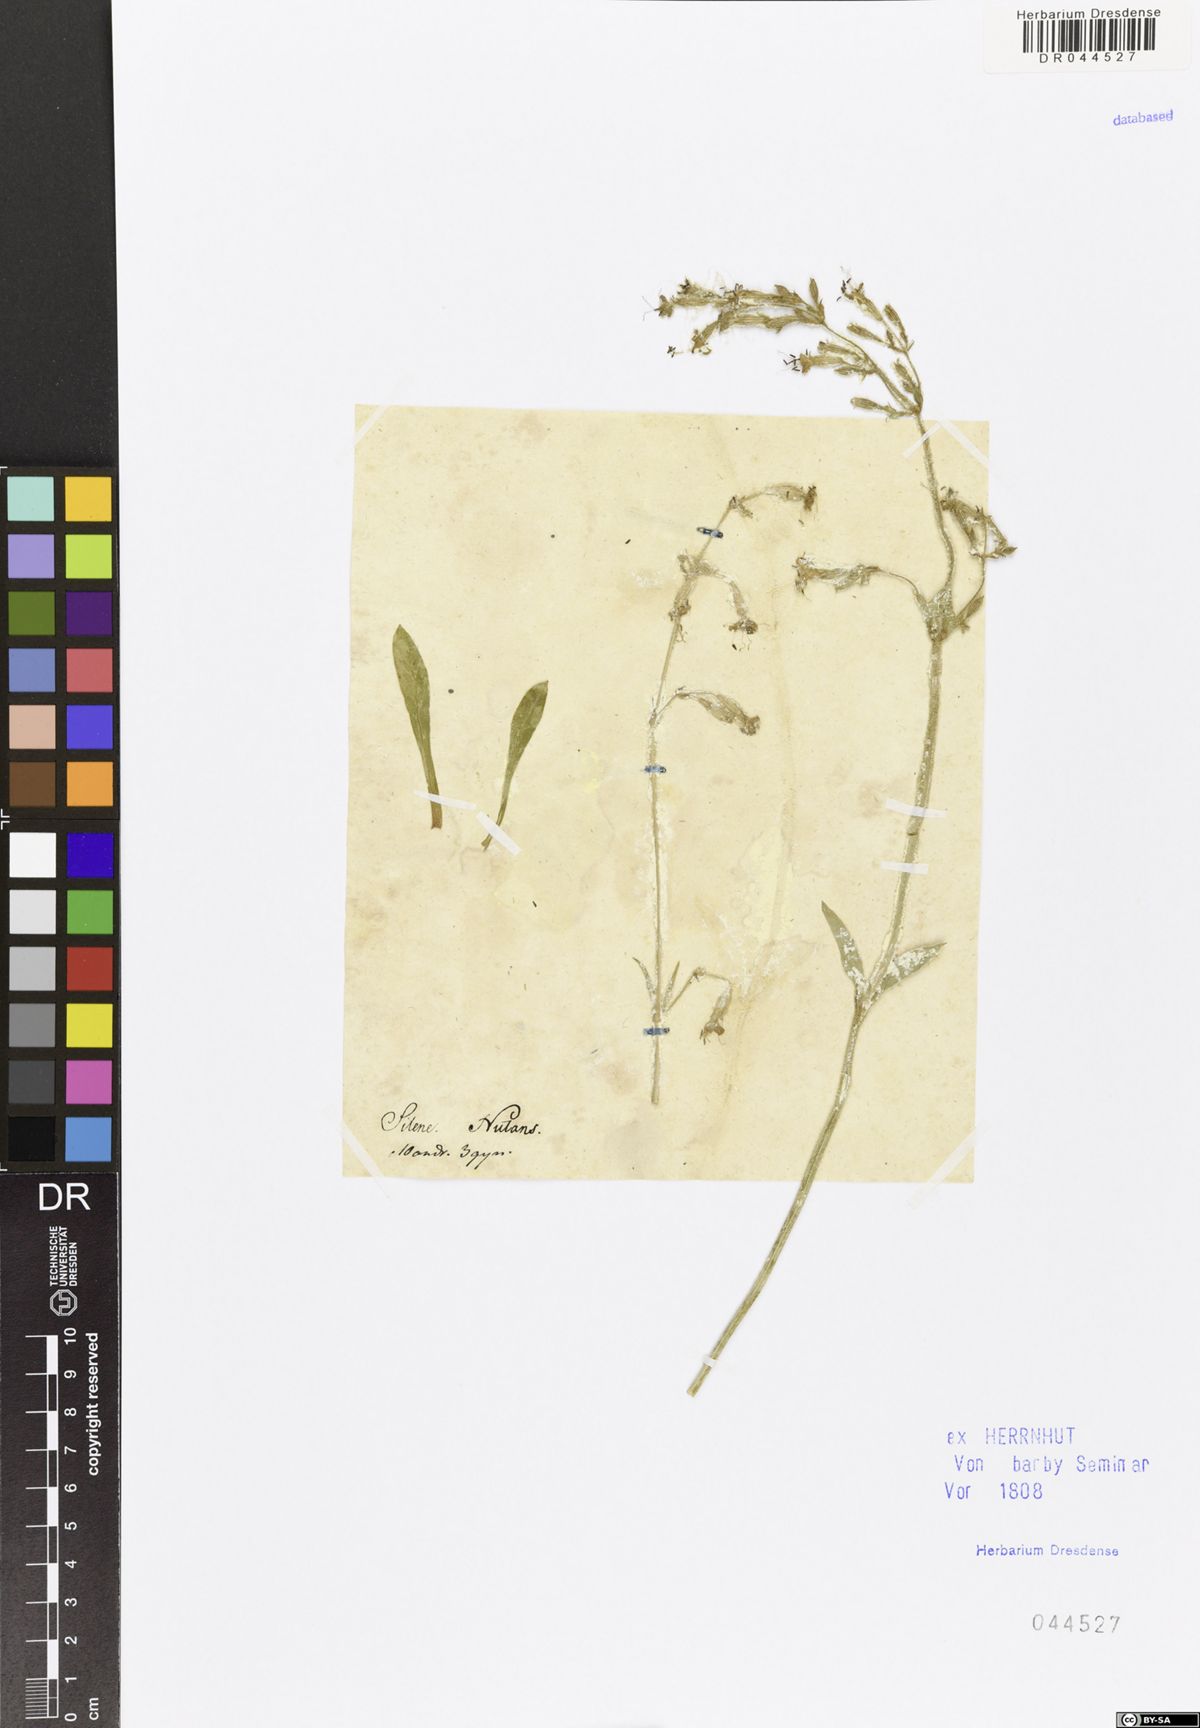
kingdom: Plantae
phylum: Tracheophyta
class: Magnoliopsida
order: Caryophyllales
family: Caryophyllaceae
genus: Silene
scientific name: Silene nutans
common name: Nottingham catchfly
